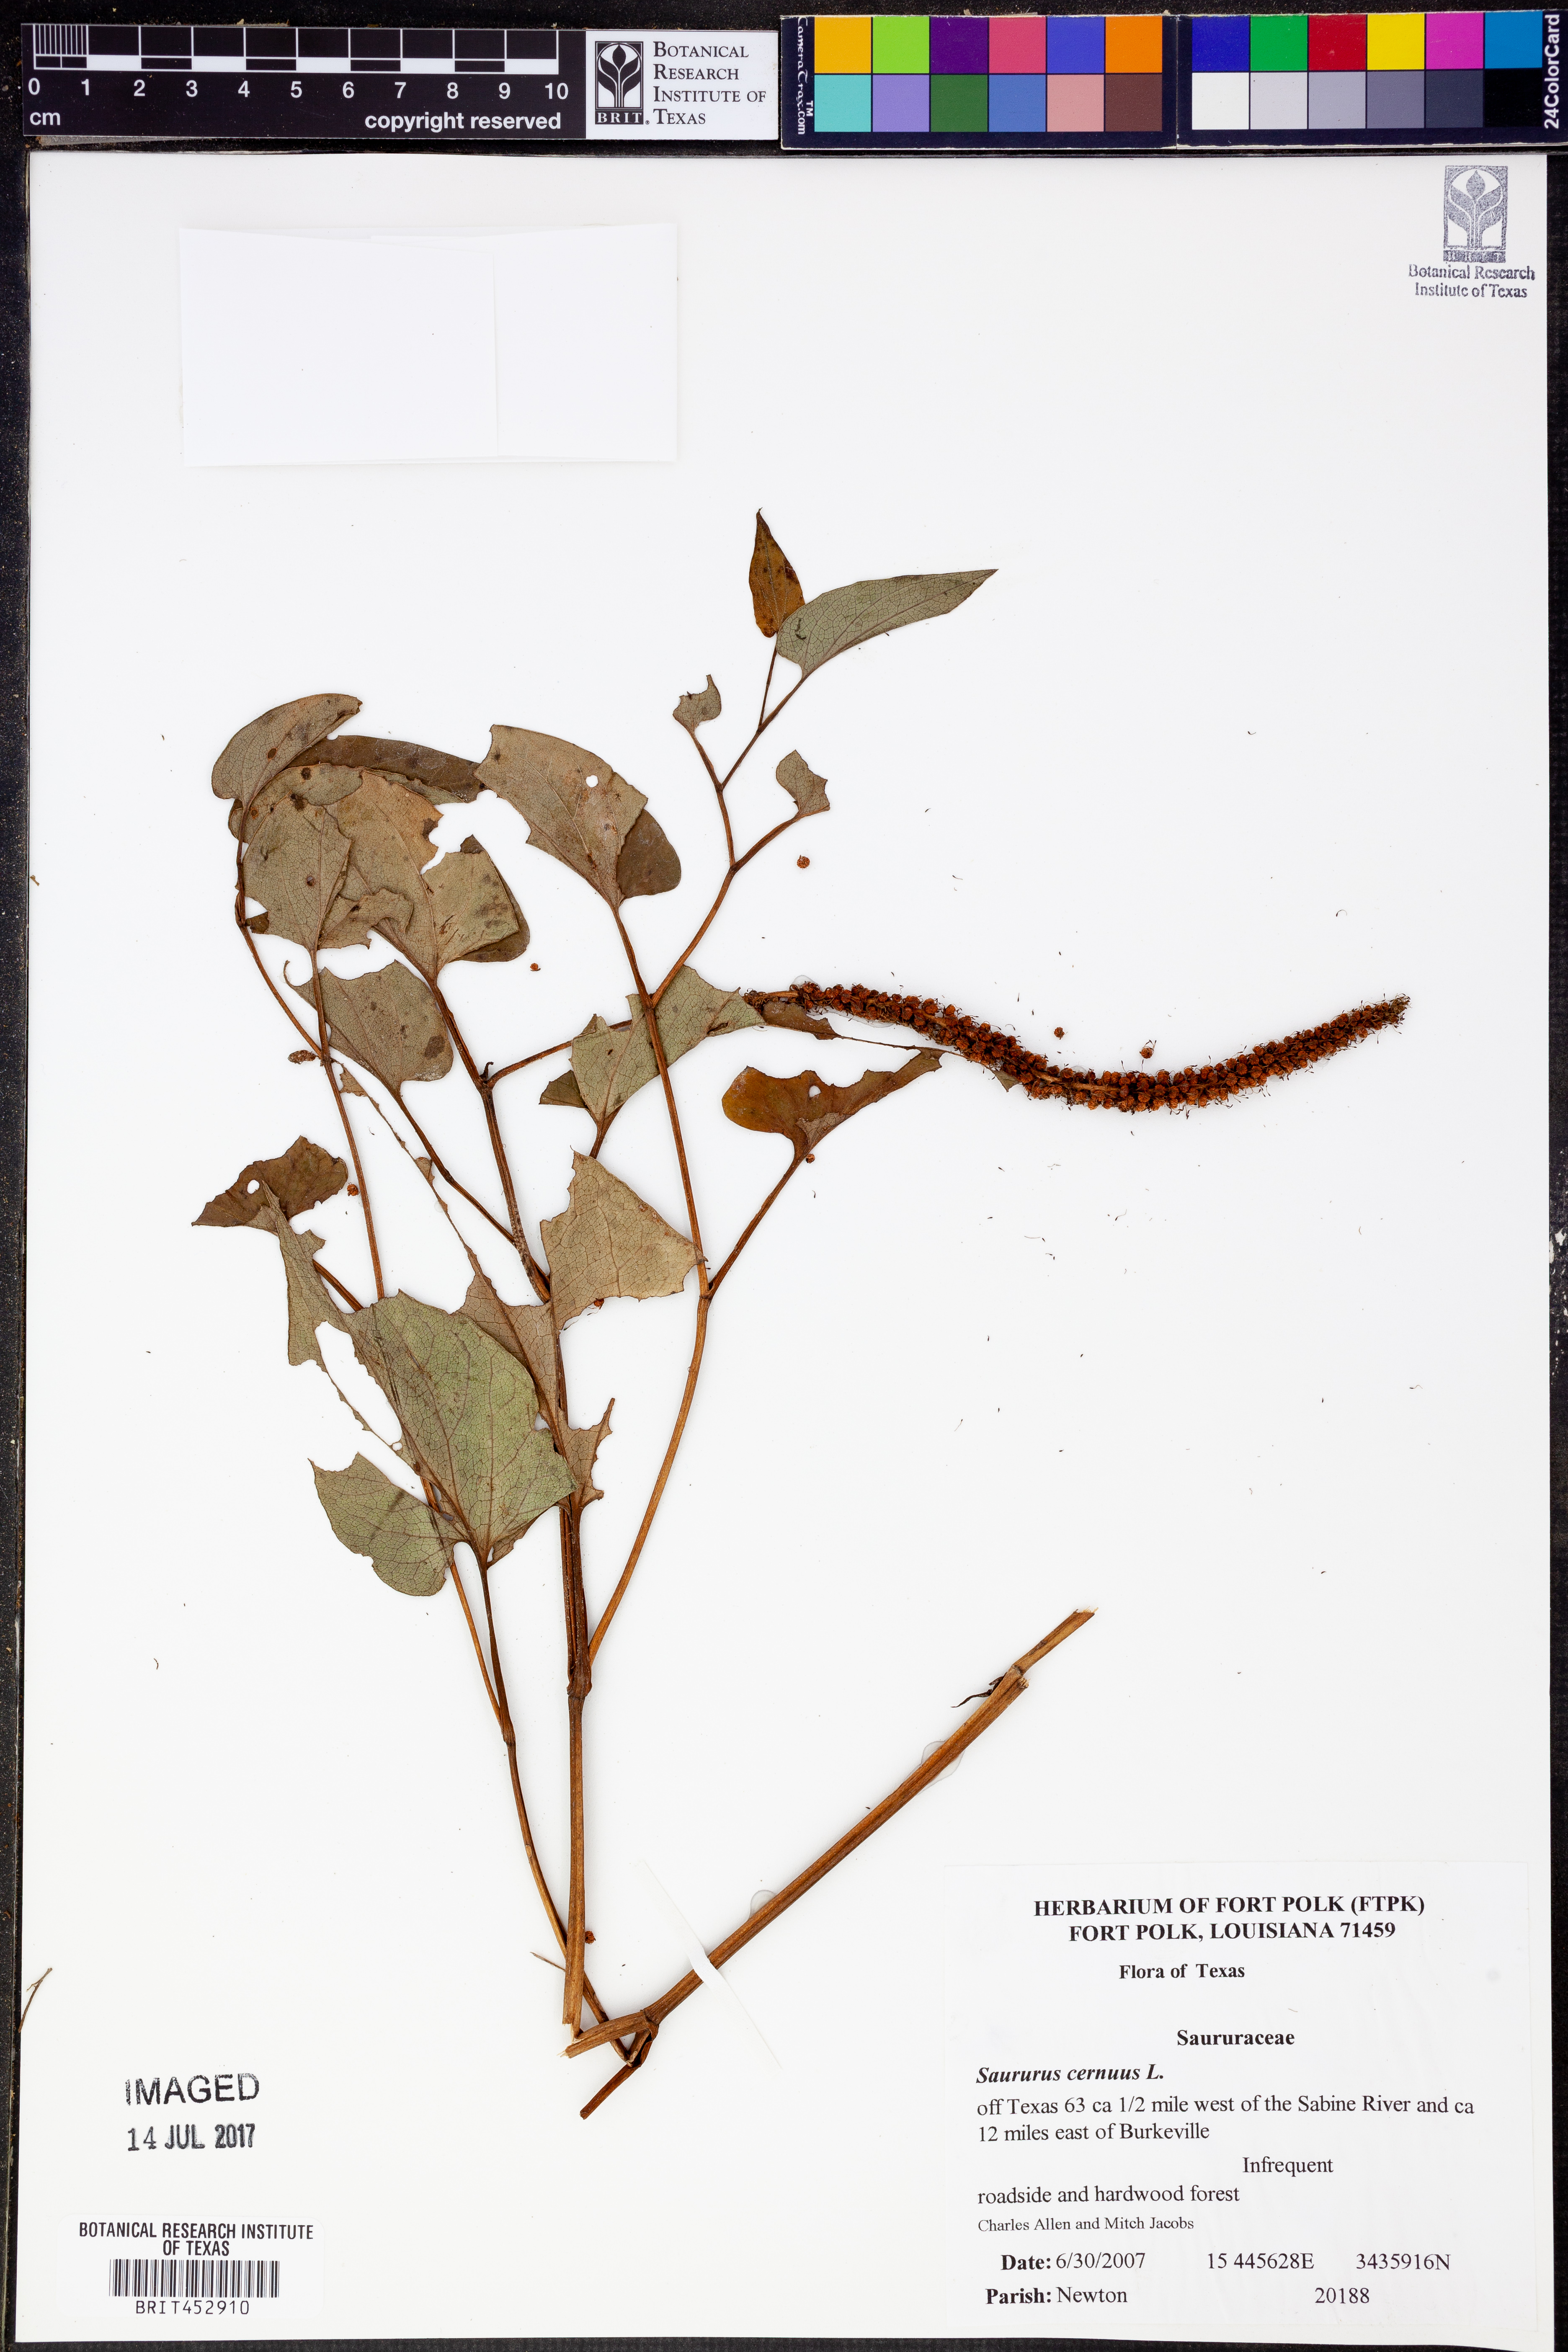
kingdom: Plantae
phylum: Tracheophyta
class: Magnoliopsida
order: Piperales
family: Saururaceae
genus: Saururus
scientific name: Saururus cernuus
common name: Lizard's-tail
